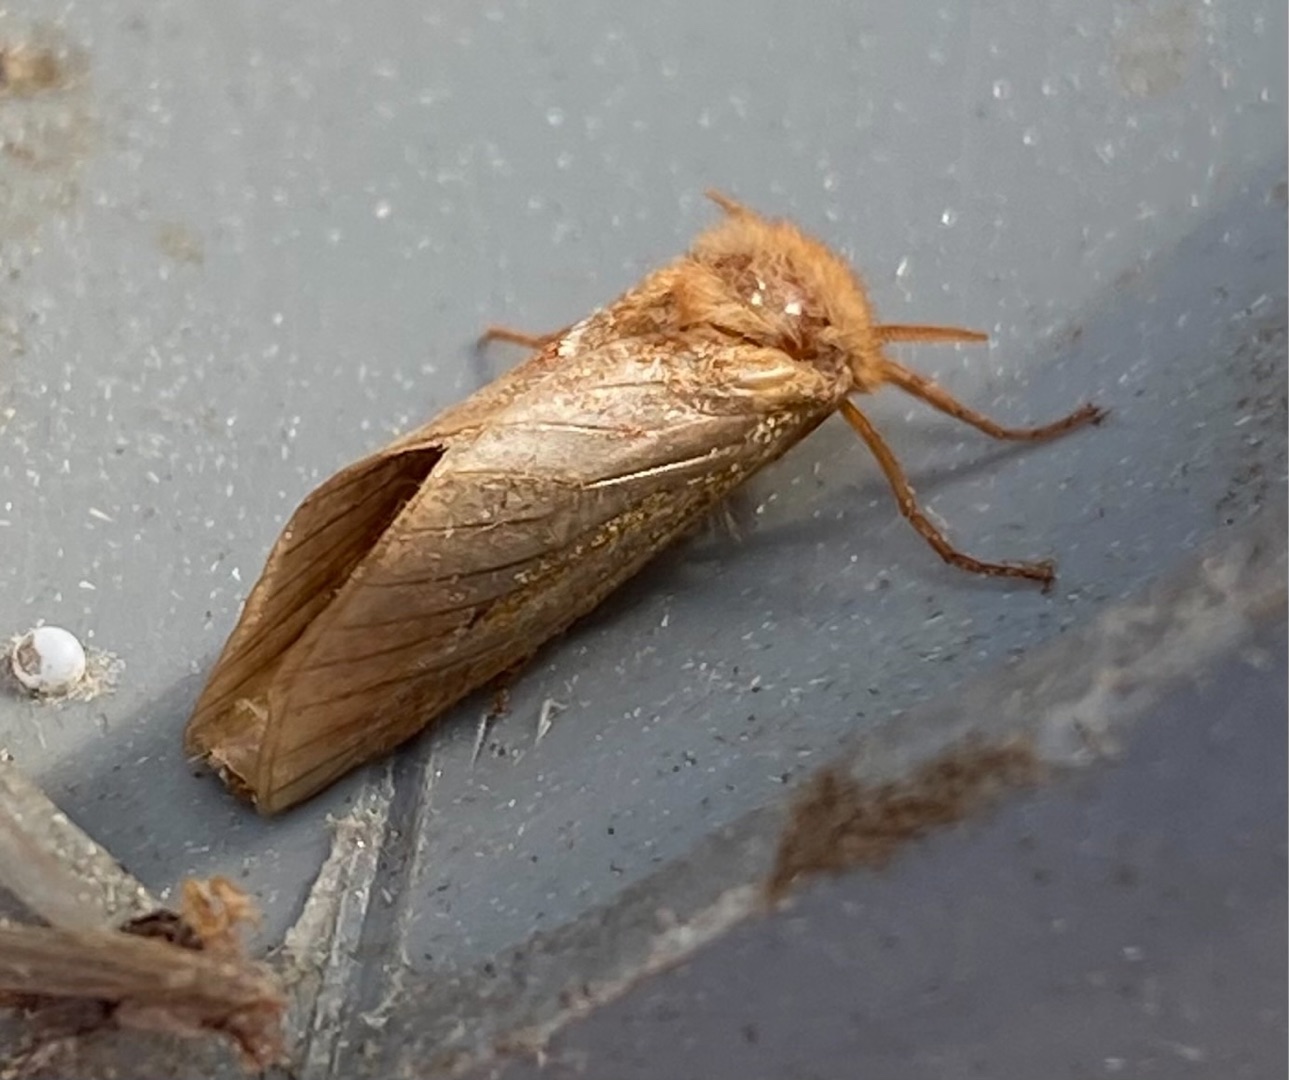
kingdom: Animalia
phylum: Arthropoda
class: Insecta
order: Lepidoptera
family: Hepialidae
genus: Triodia
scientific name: Triodia sylvina
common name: Skræpperodæder
